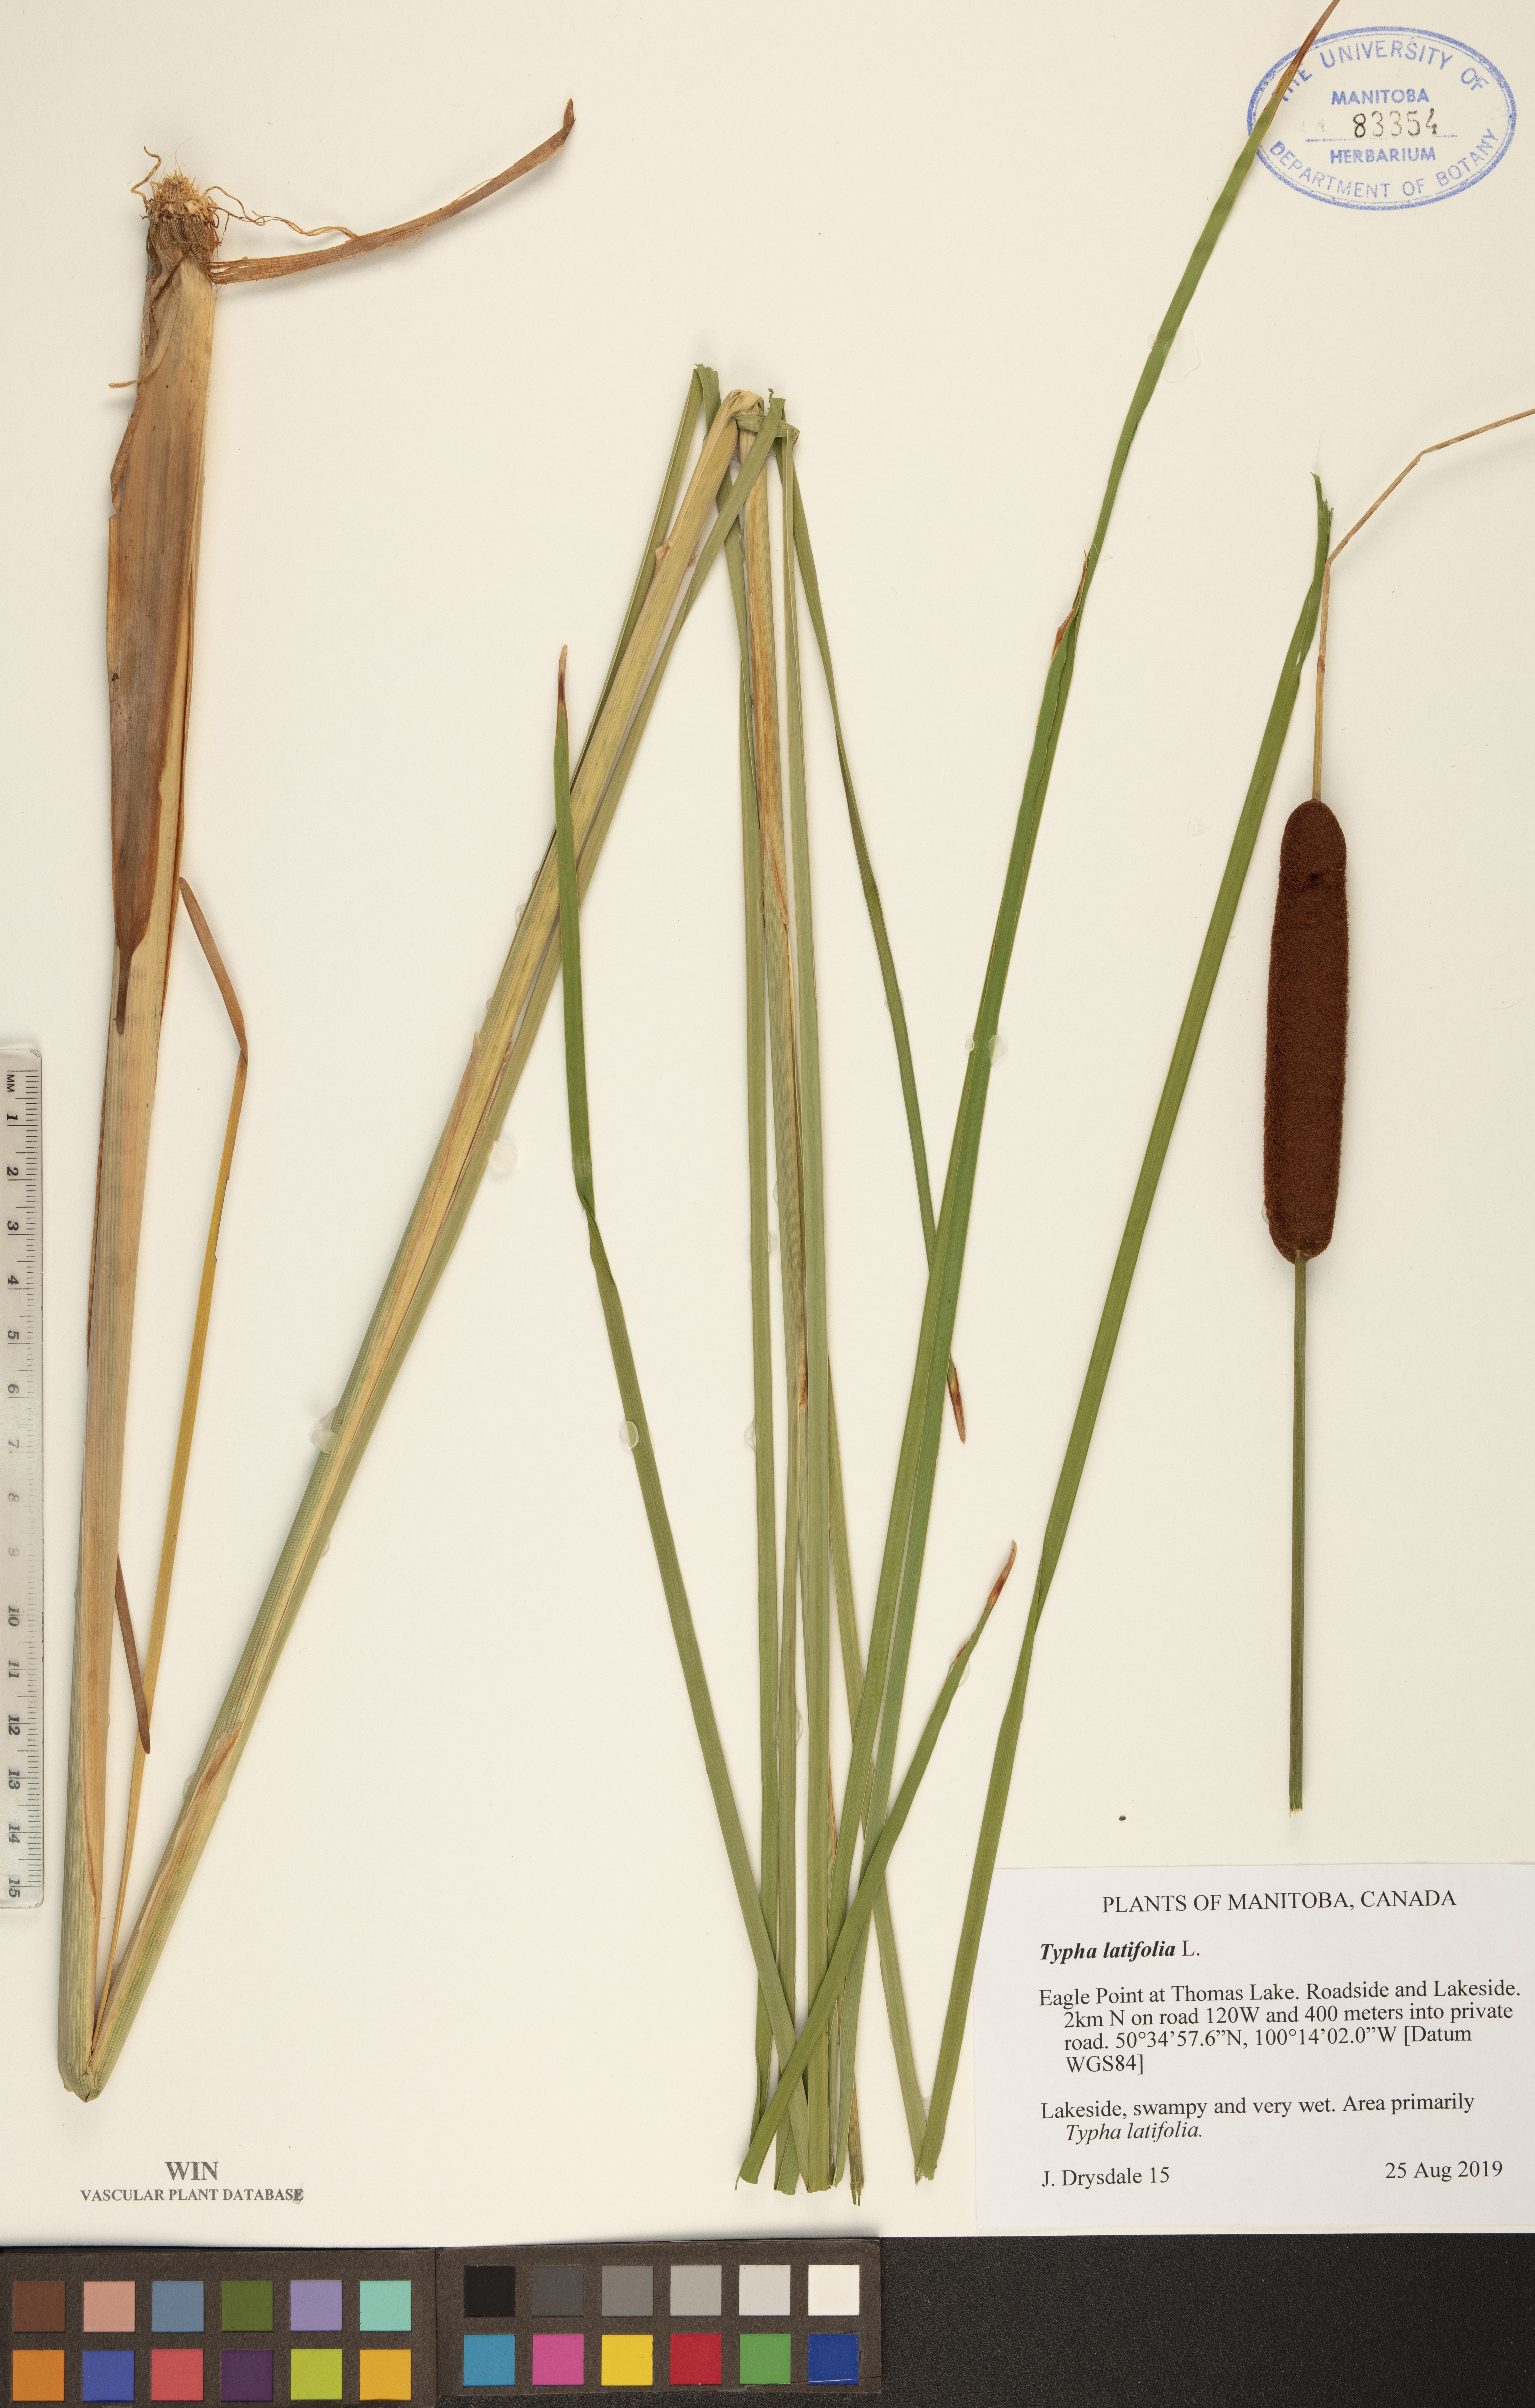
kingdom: Plantae
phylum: Tracheophyta
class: Liliopsida
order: Poales
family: Typhaceae
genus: Typha
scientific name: Typha latifolia
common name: Broadleaf cattail
